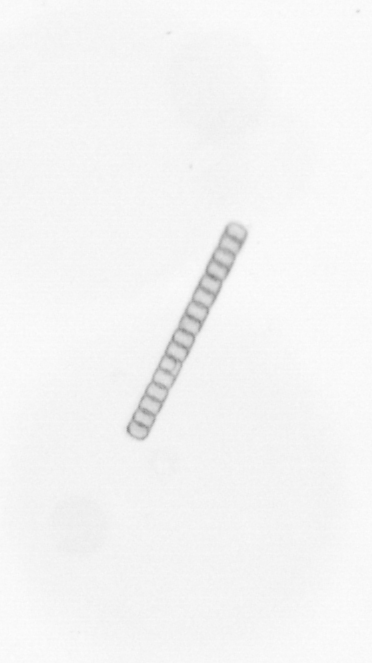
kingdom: Chromista
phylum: Ochrophyta
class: Bacillariophyceae
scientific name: Bacillariophyceae
